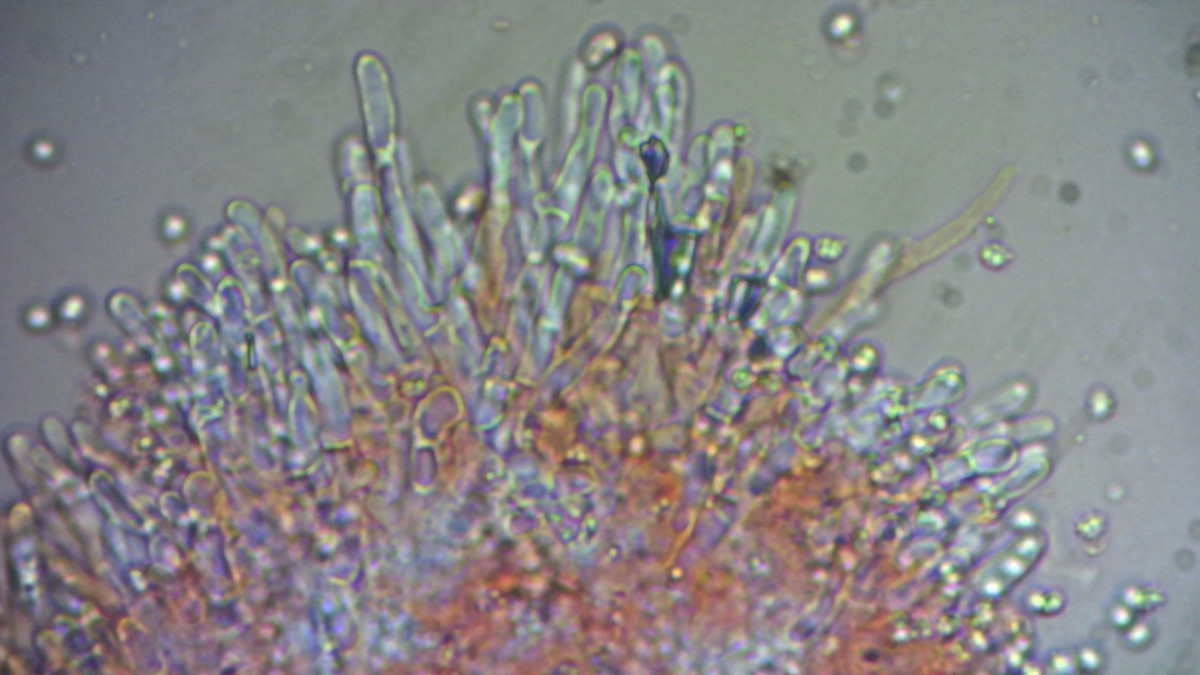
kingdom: Fungi
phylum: Basidiomycota
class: Agaricomycetes
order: Trechisporales
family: Sistotremataceae
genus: Trechispora
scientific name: Trechispora stevensonii
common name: støvende vathinde
